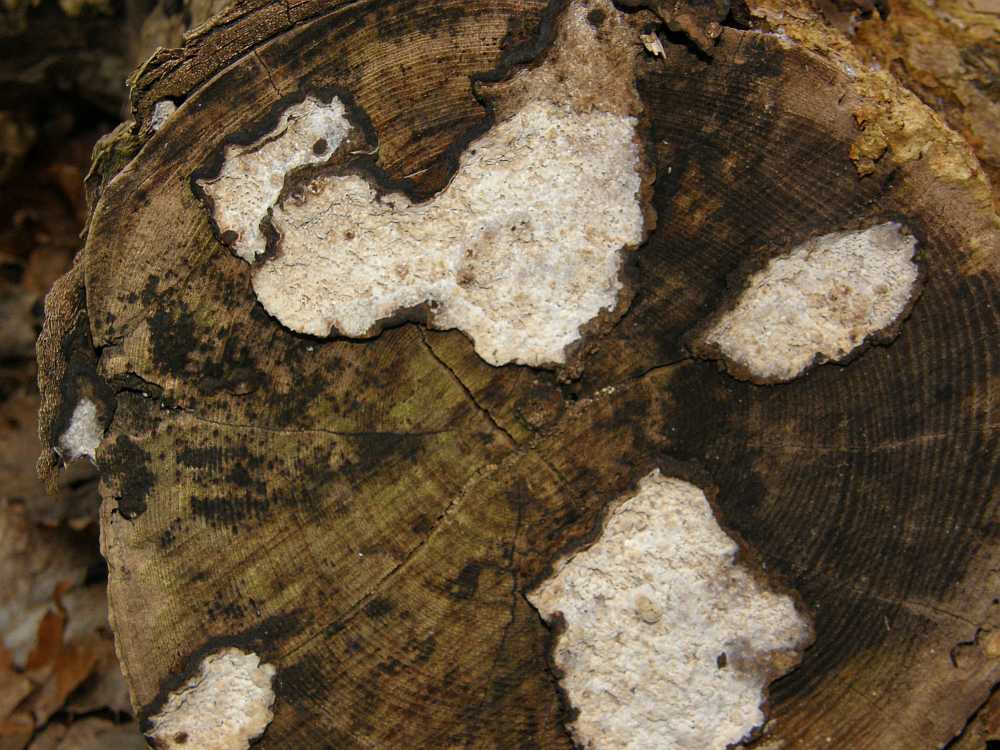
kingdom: Fungi
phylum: Basidiomycota
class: Agaricomycetes
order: Polyporales
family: Polyporaceae
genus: Podofomes
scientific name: Podofomes mollis
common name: blød begporesvamp
